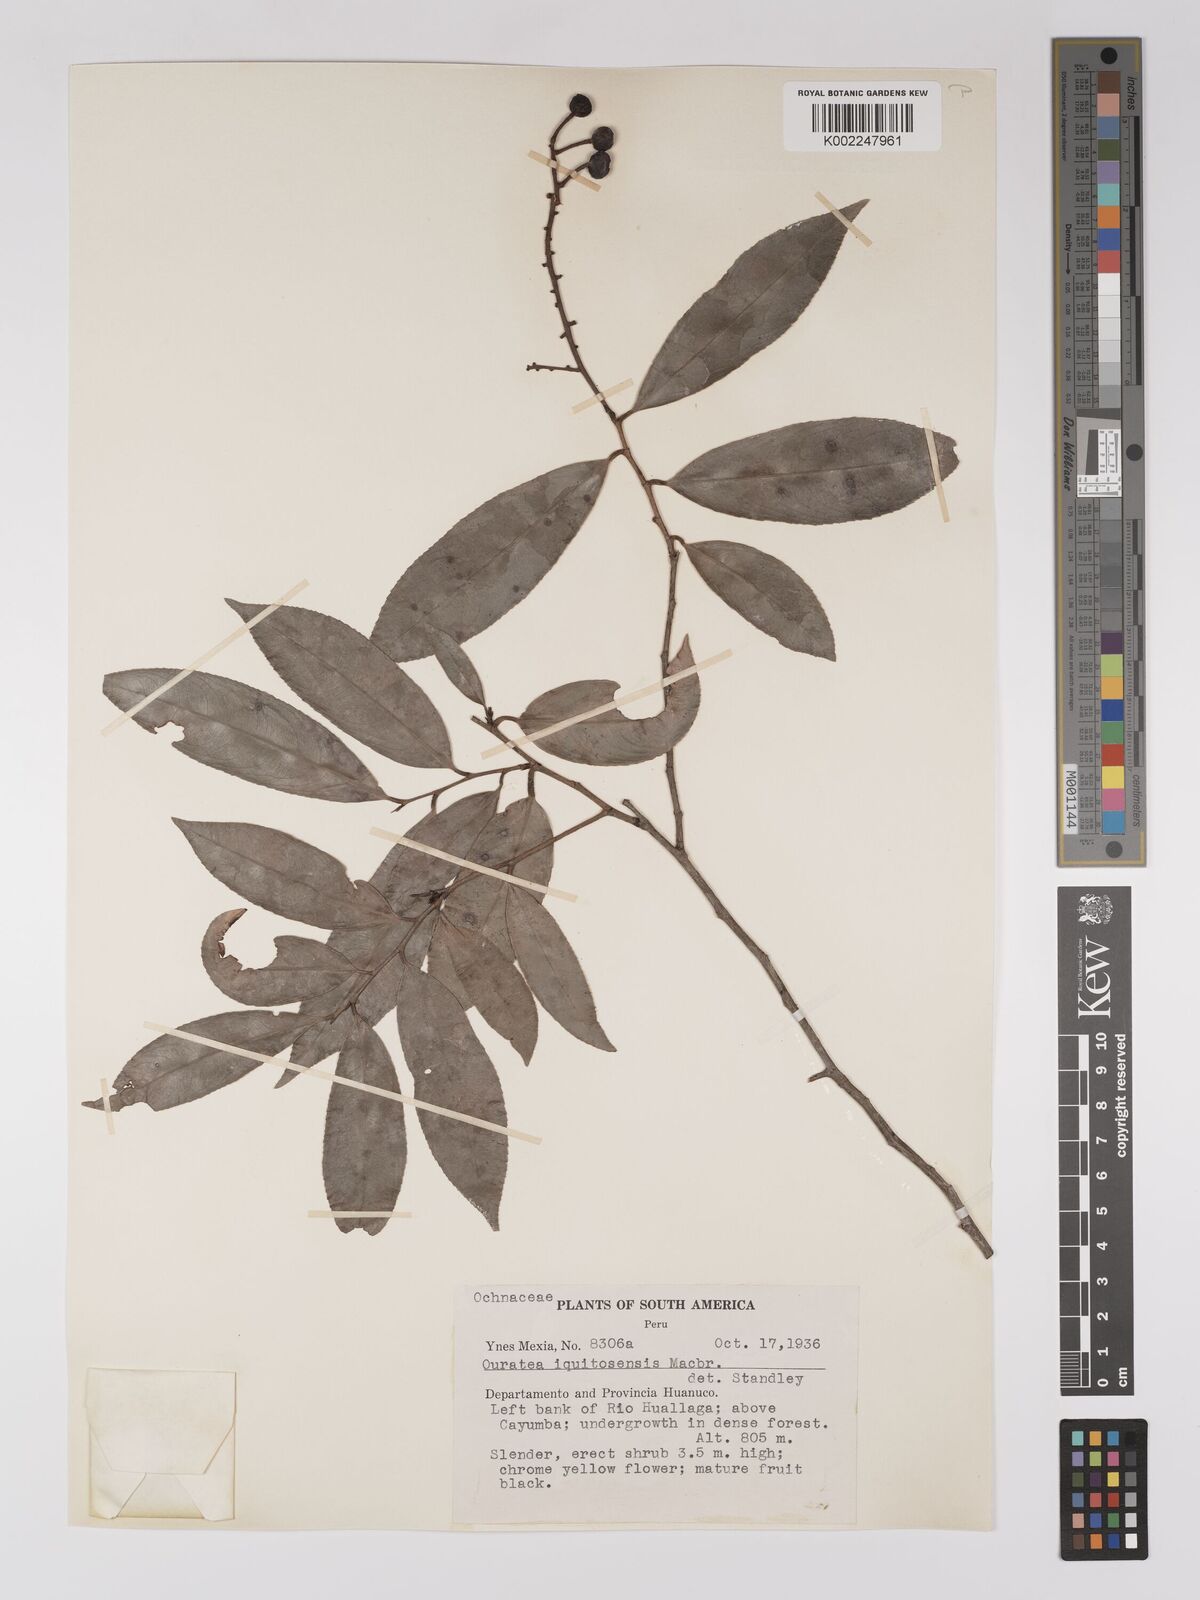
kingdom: Plantae
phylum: Tracheophyta
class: Magnoliopsida
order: Malpighiales
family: Ochnaceae
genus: Ouratea
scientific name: Ouratea iquitosensis
